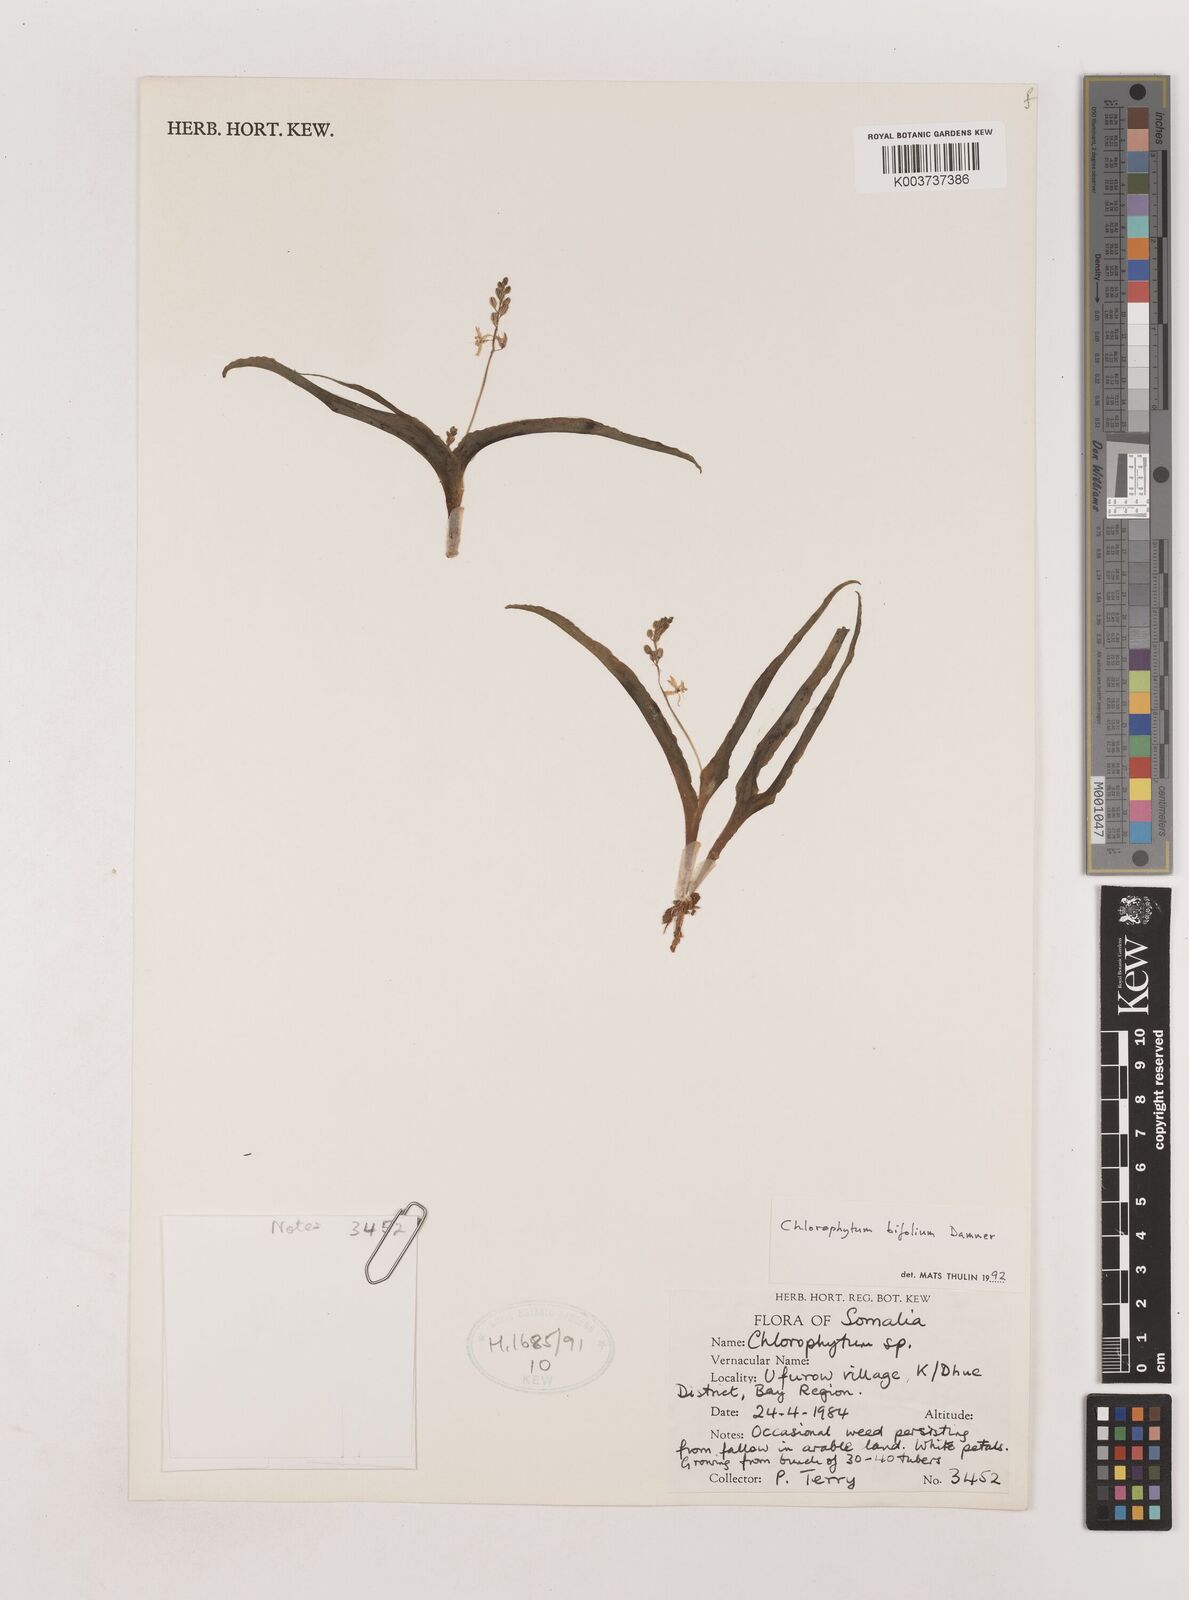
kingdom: Plantae
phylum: Tracheophyta
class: Liliopsida
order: Asparagales
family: Asparagaceae
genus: Chlorophytum
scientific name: Chlorophytum bifolium
